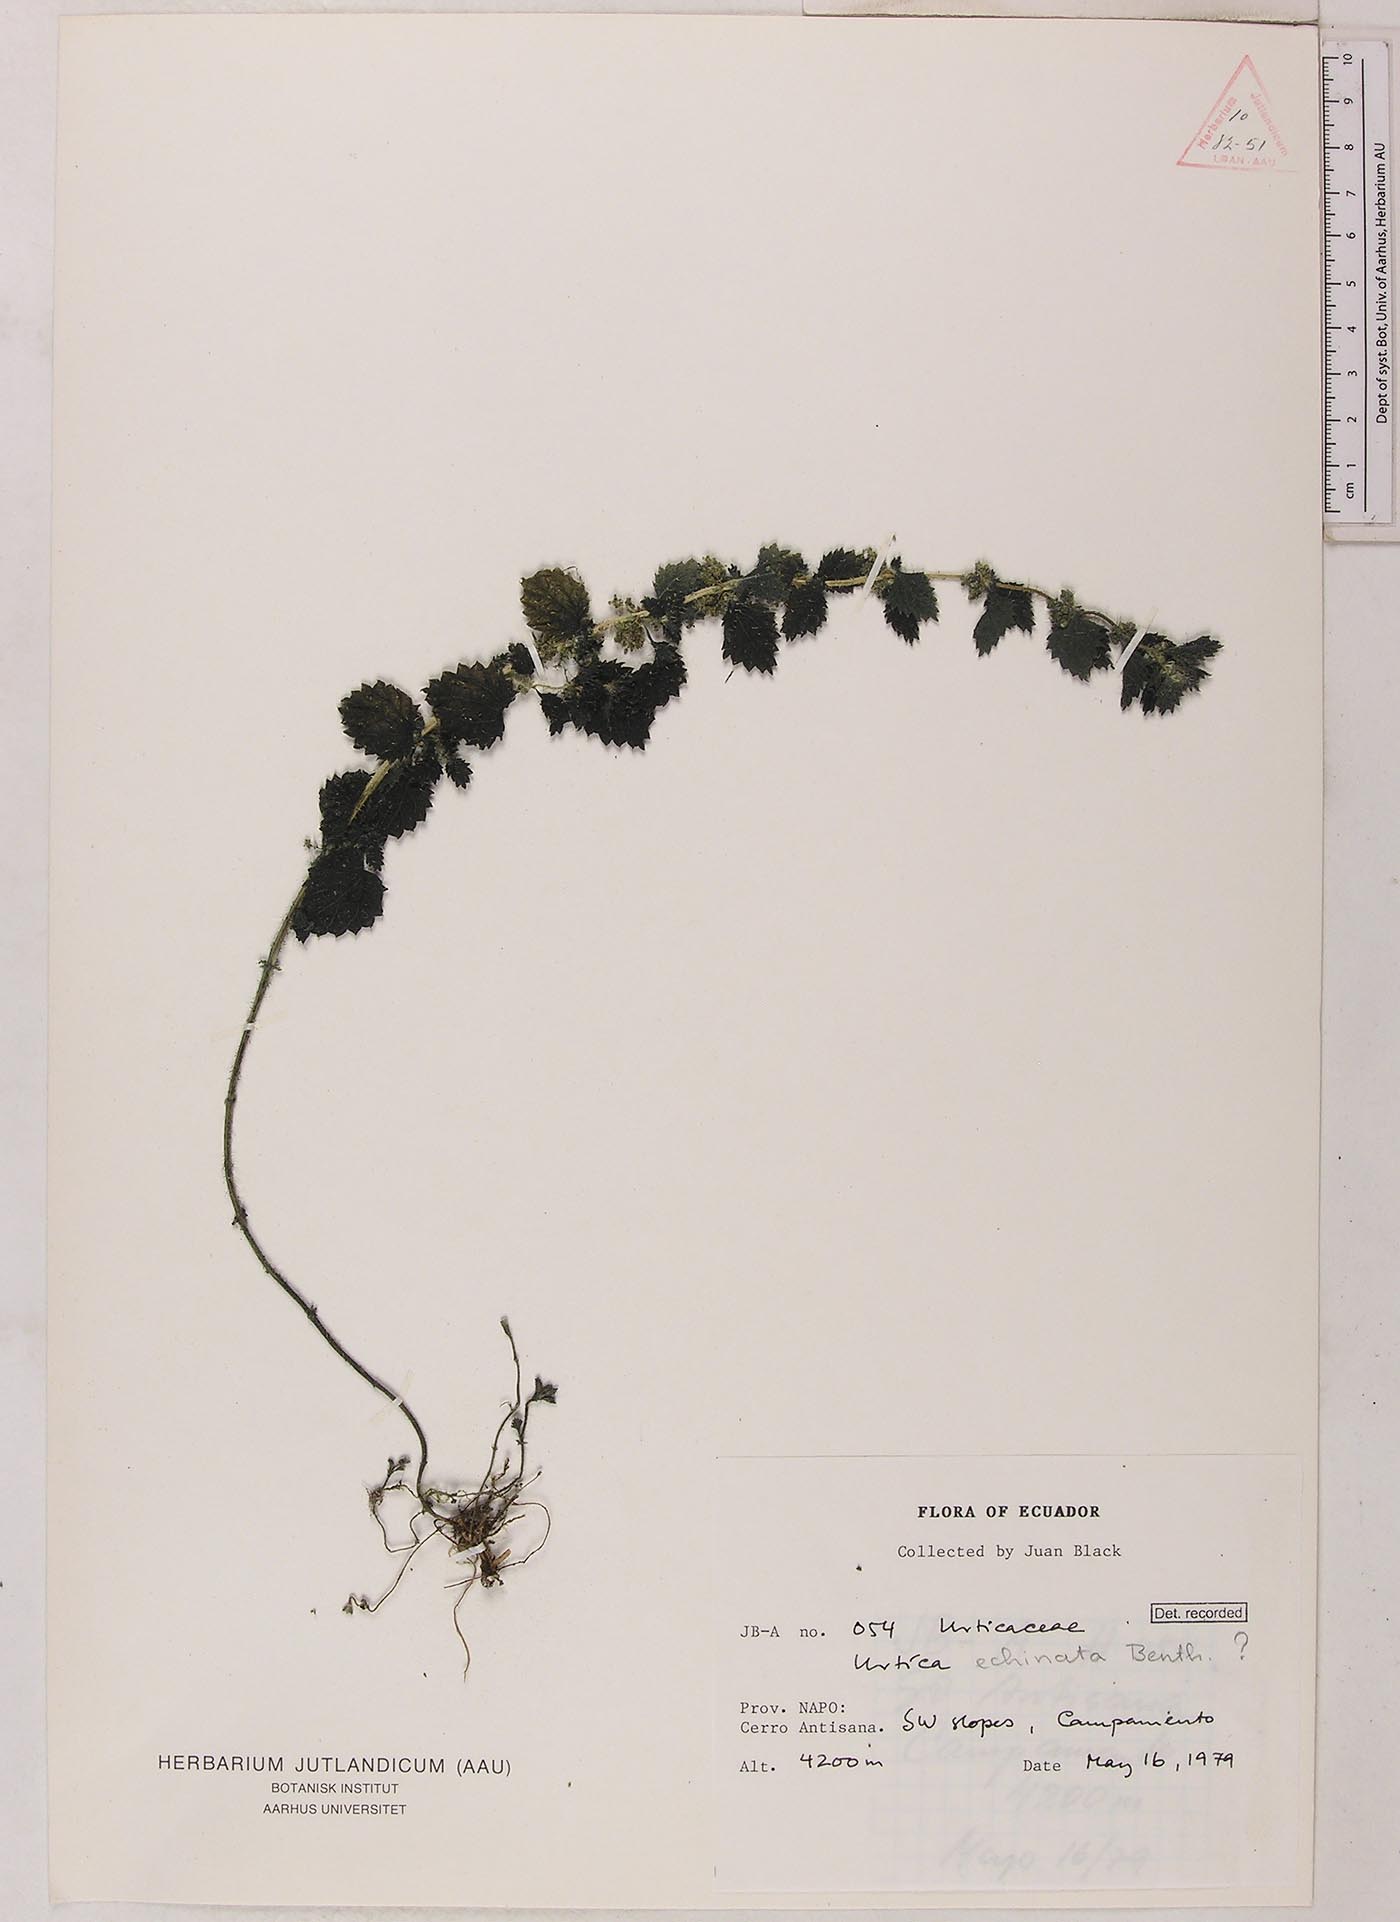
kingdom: Plantae
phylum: Tracheophyta
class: Magnoliopsida
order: Rosales
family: Urticaceae
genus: Urtica
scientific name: Urtica echinata
